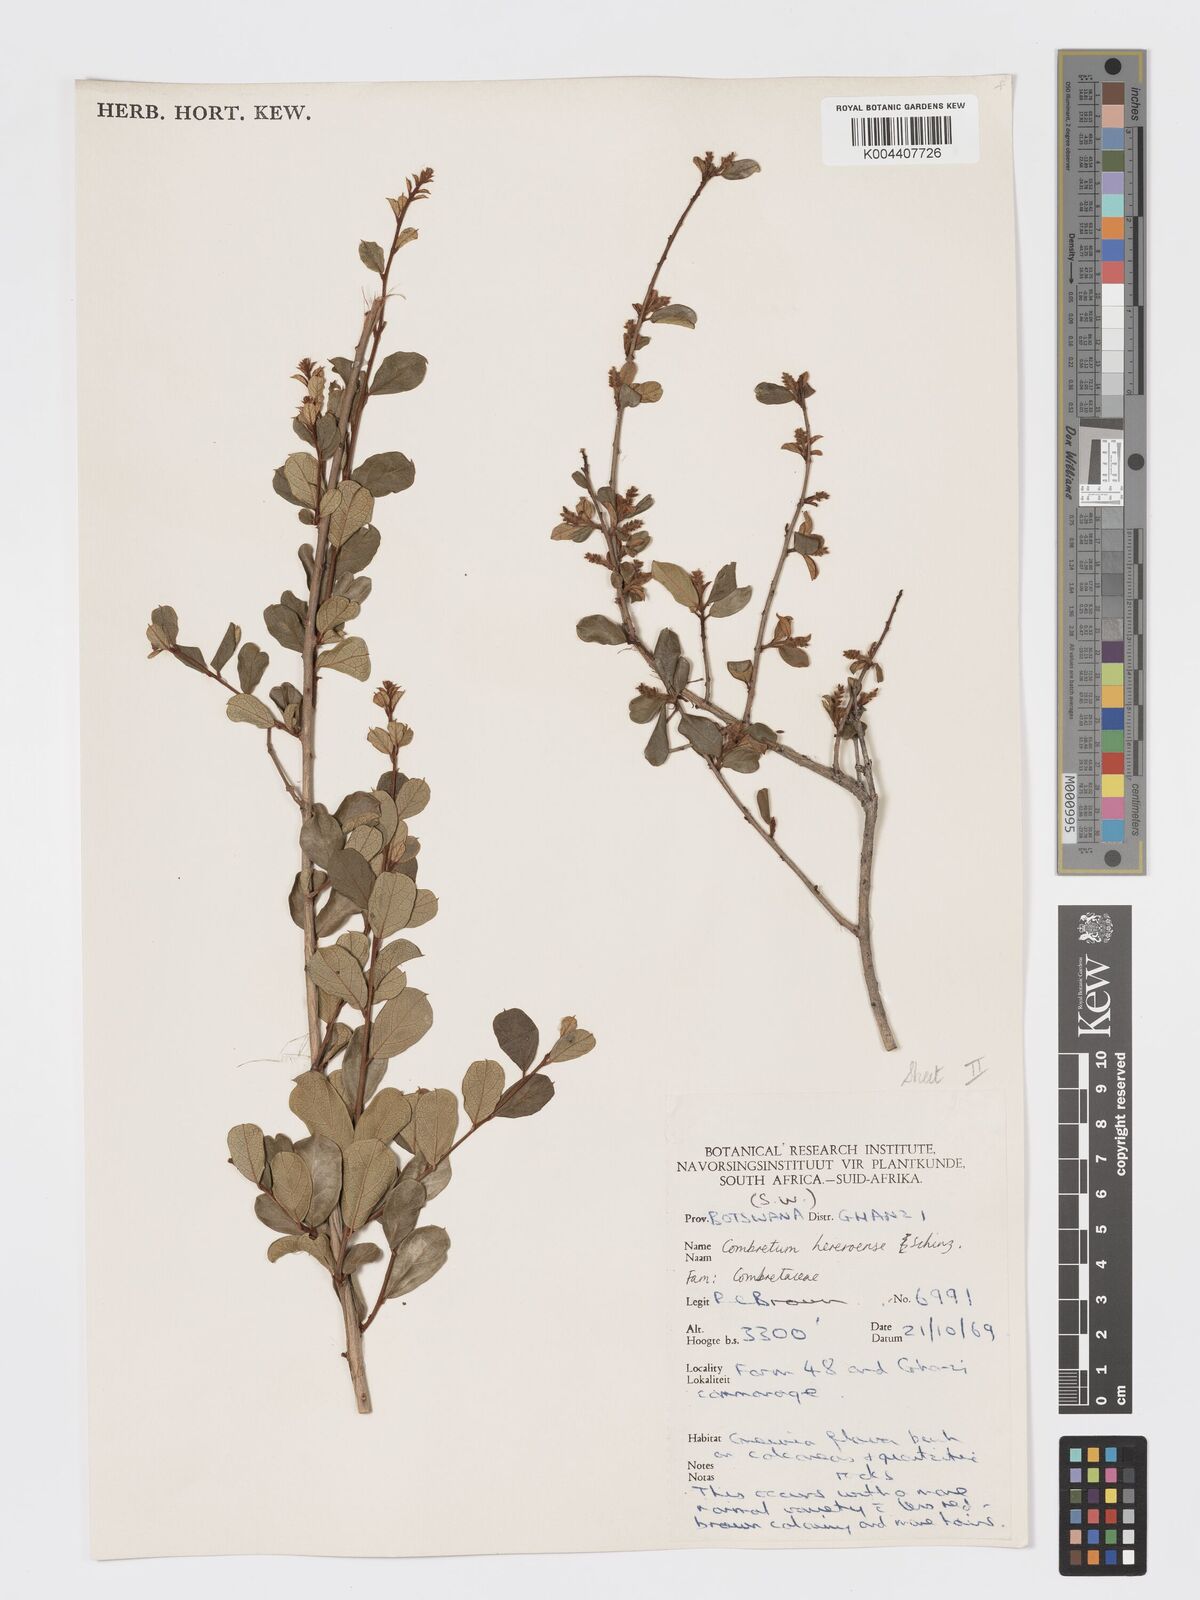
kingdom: Plantae
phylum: Tracheophyta
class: Magnoliopsida
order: Myrtales
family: Combretaceae
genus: Combretum
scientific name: Combretum hereroense
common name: Russet bushwillow
